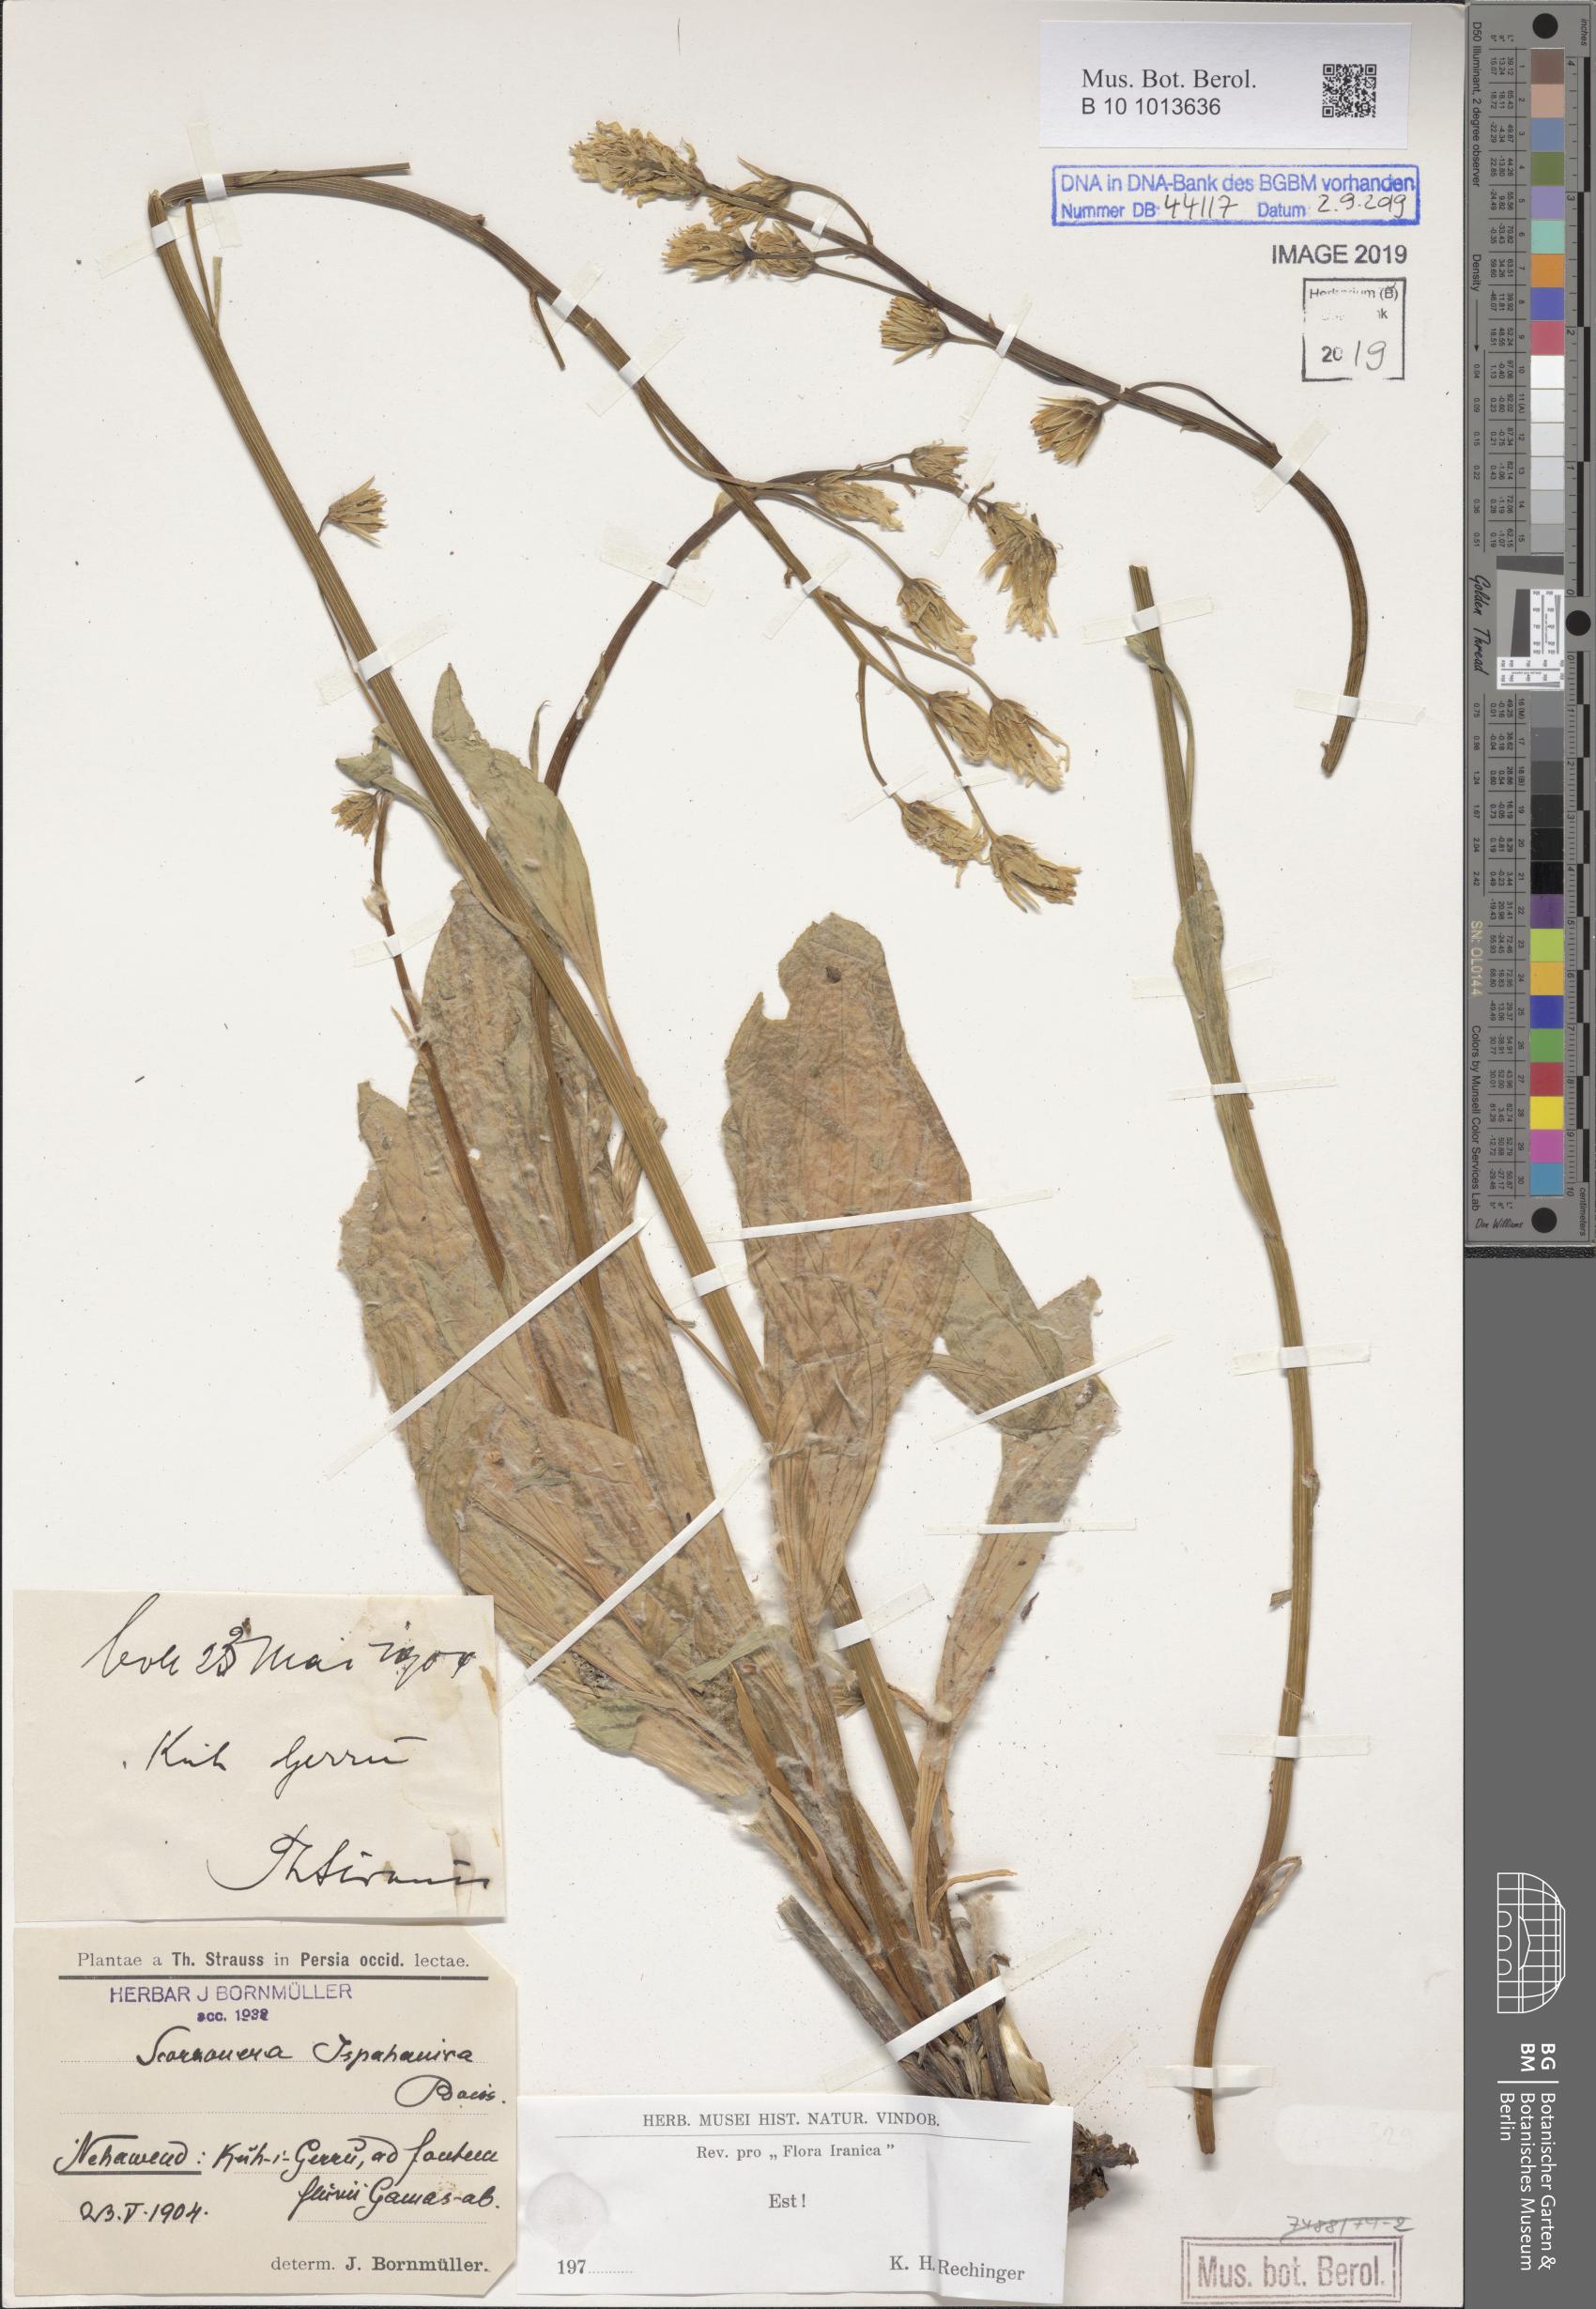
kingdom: Plantae
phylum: Tracheophyta
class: Magnoliopsida
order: Asterales
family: Asteraceae
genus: Scorzonera
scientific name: Scorzonera ispahanica
